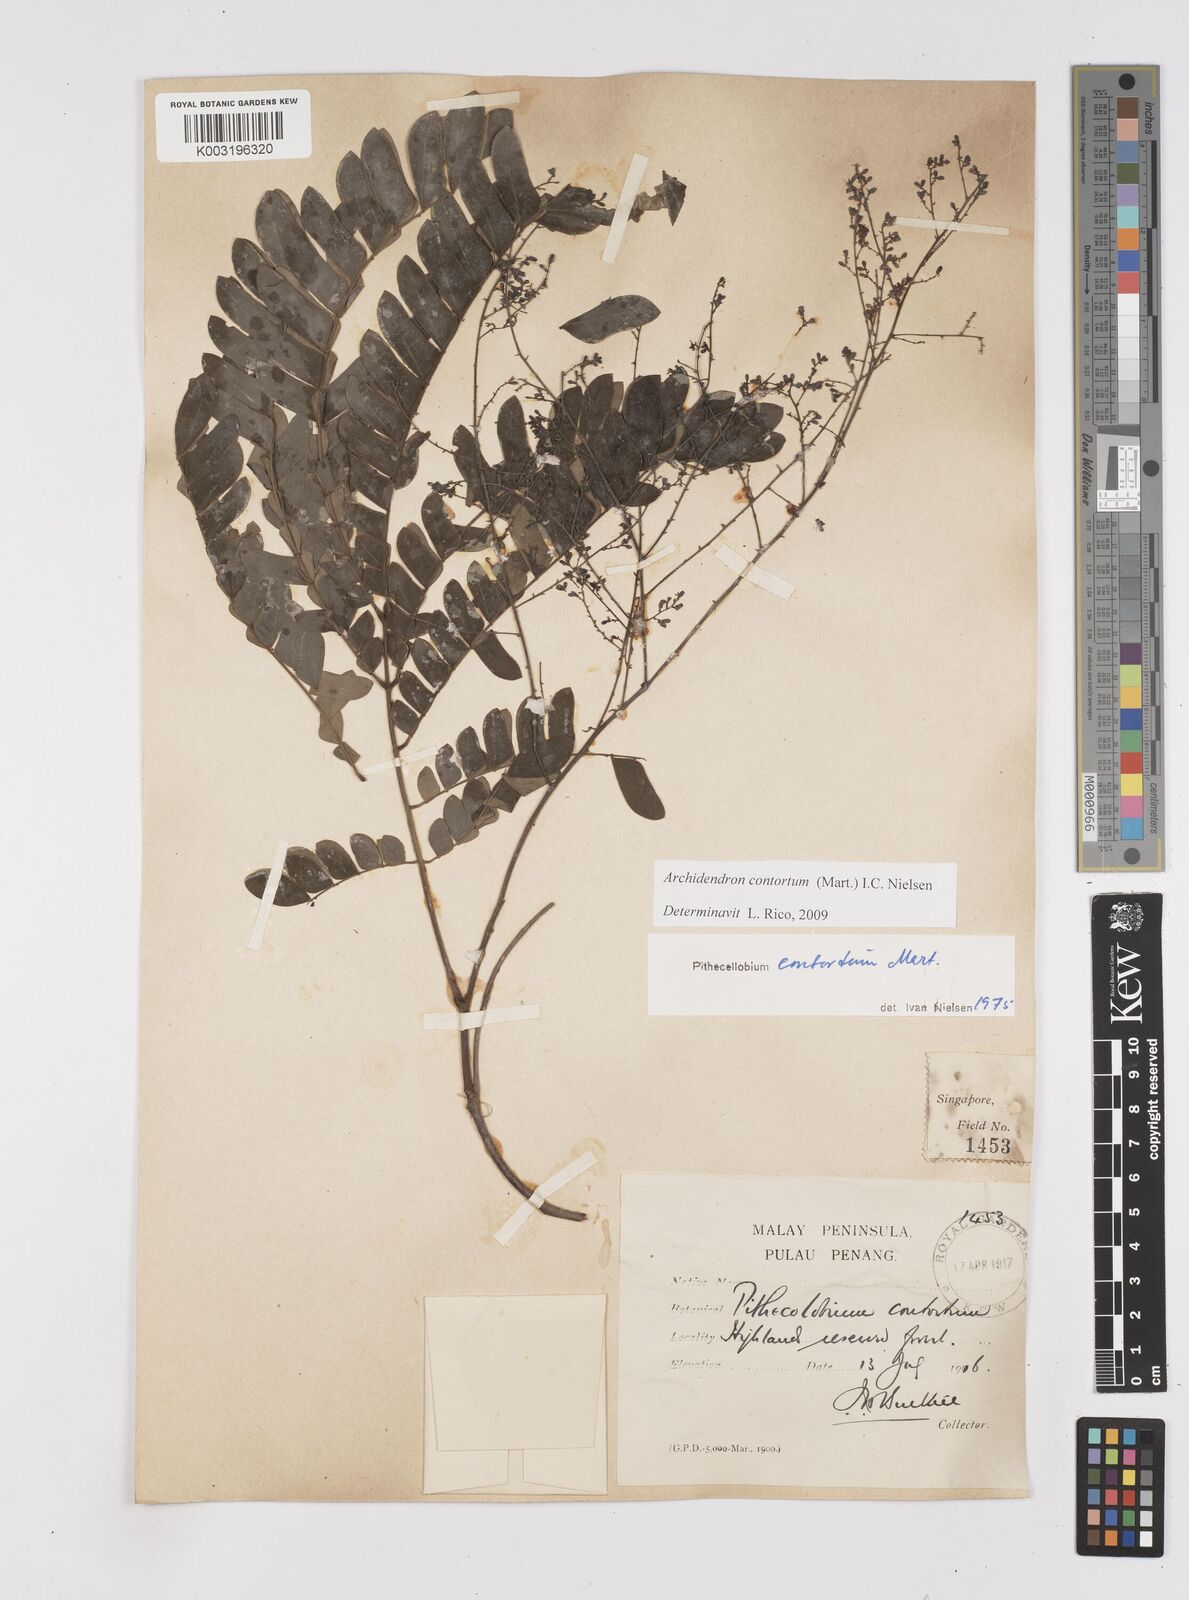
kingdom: Plantae
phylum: Tracheophyta
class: Magnoliopsida
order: Fabales
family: Fabaceae
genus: Archidendron
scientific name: Archidendron contortum
